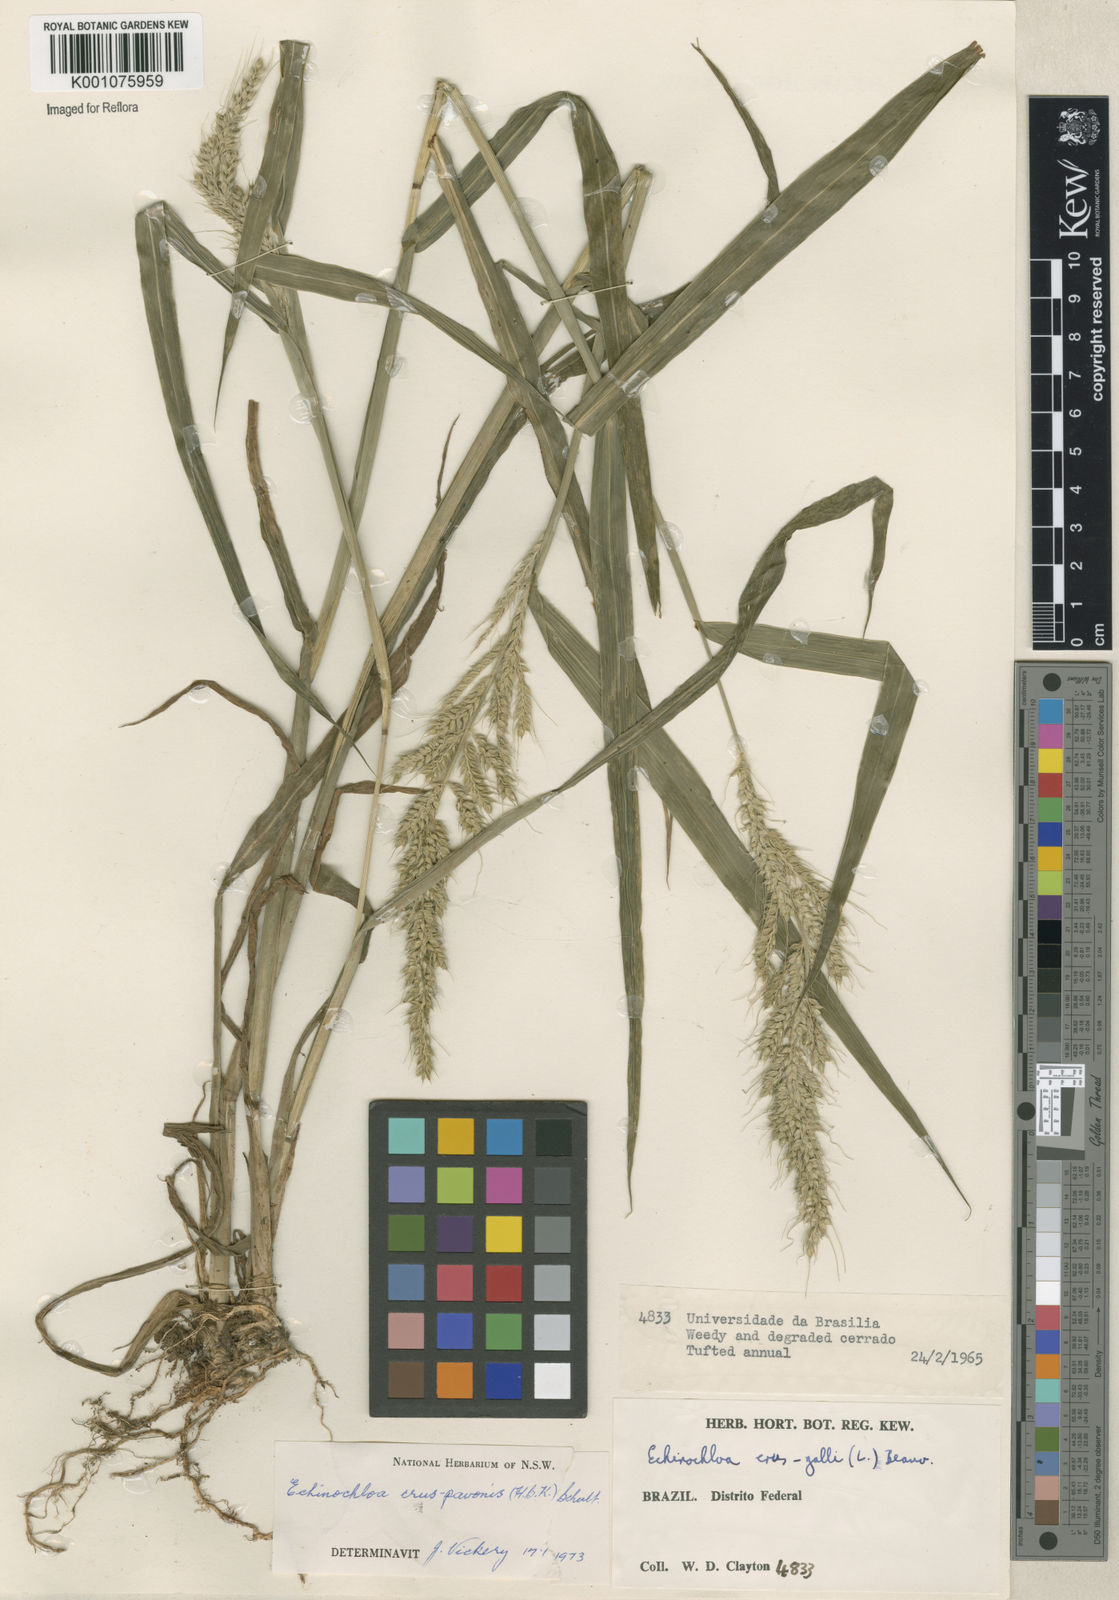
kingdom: Plantae
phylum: Tracheophyta
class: Liliopsida
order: Poales
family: Poaceae
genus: Echinochloa
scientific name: Echinochloa crus-pavonis
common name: Gulf cockspur grass
